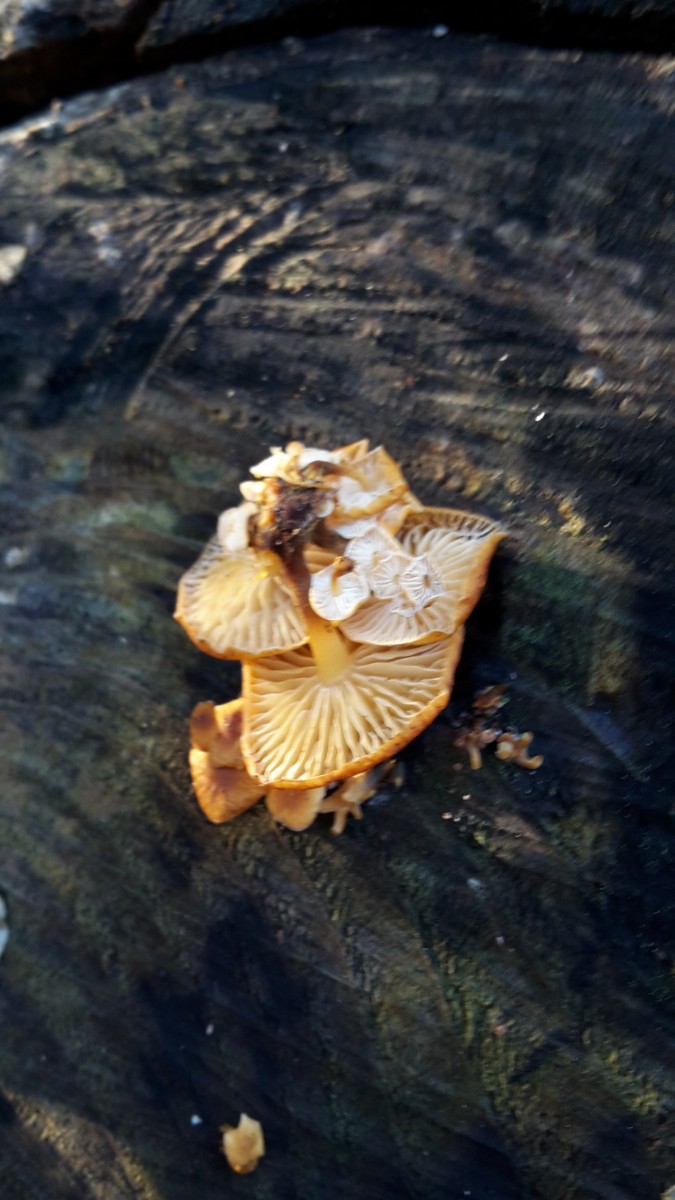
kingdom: Fungi
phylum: Basidiomycota
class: Agaricomycetes
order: Agaricales
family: Physalacriaceae
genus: Flammulina
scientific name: Flammulina velutipes
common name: gul fløjlsfod
